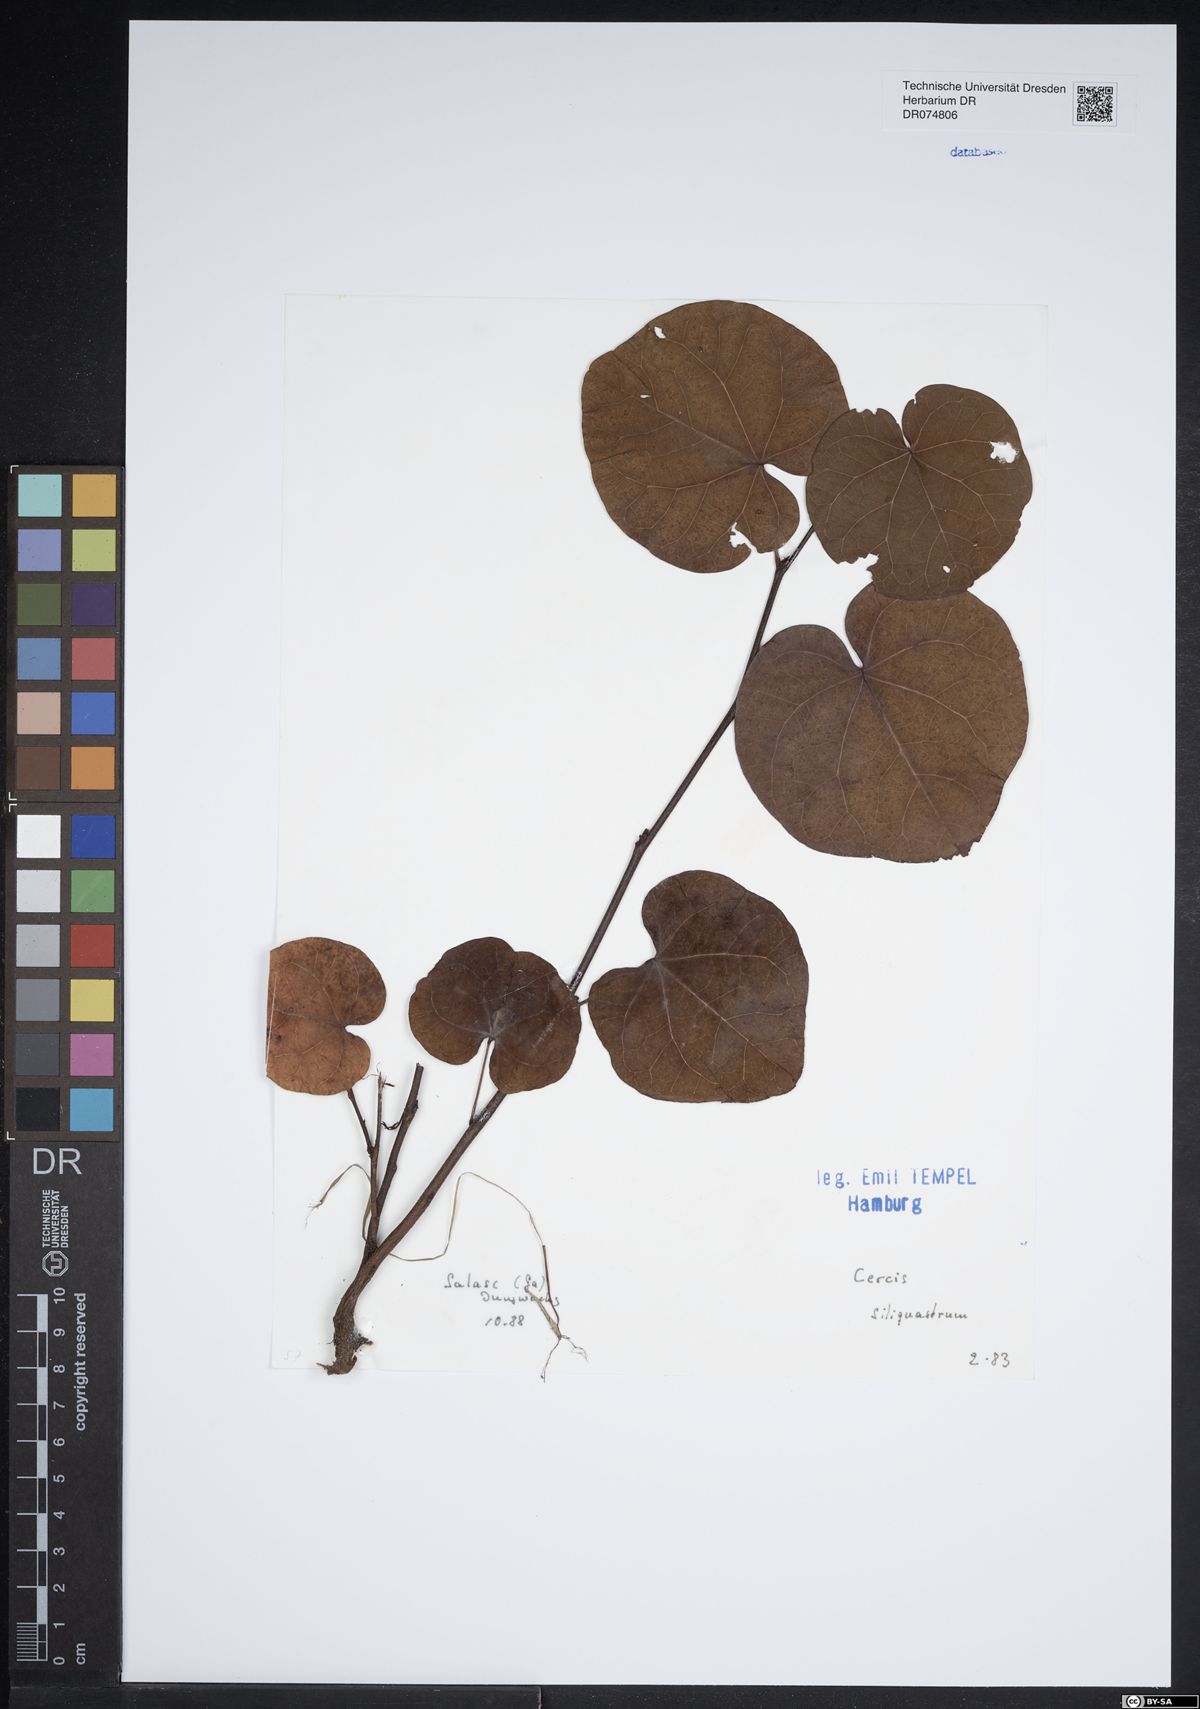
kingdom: Plantae
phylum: Tracheophyta
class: Magnoliopsida
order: Fabales
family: Fabaceae
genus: Cercis
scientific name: Cercis siliquastrum
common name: Judas tree
